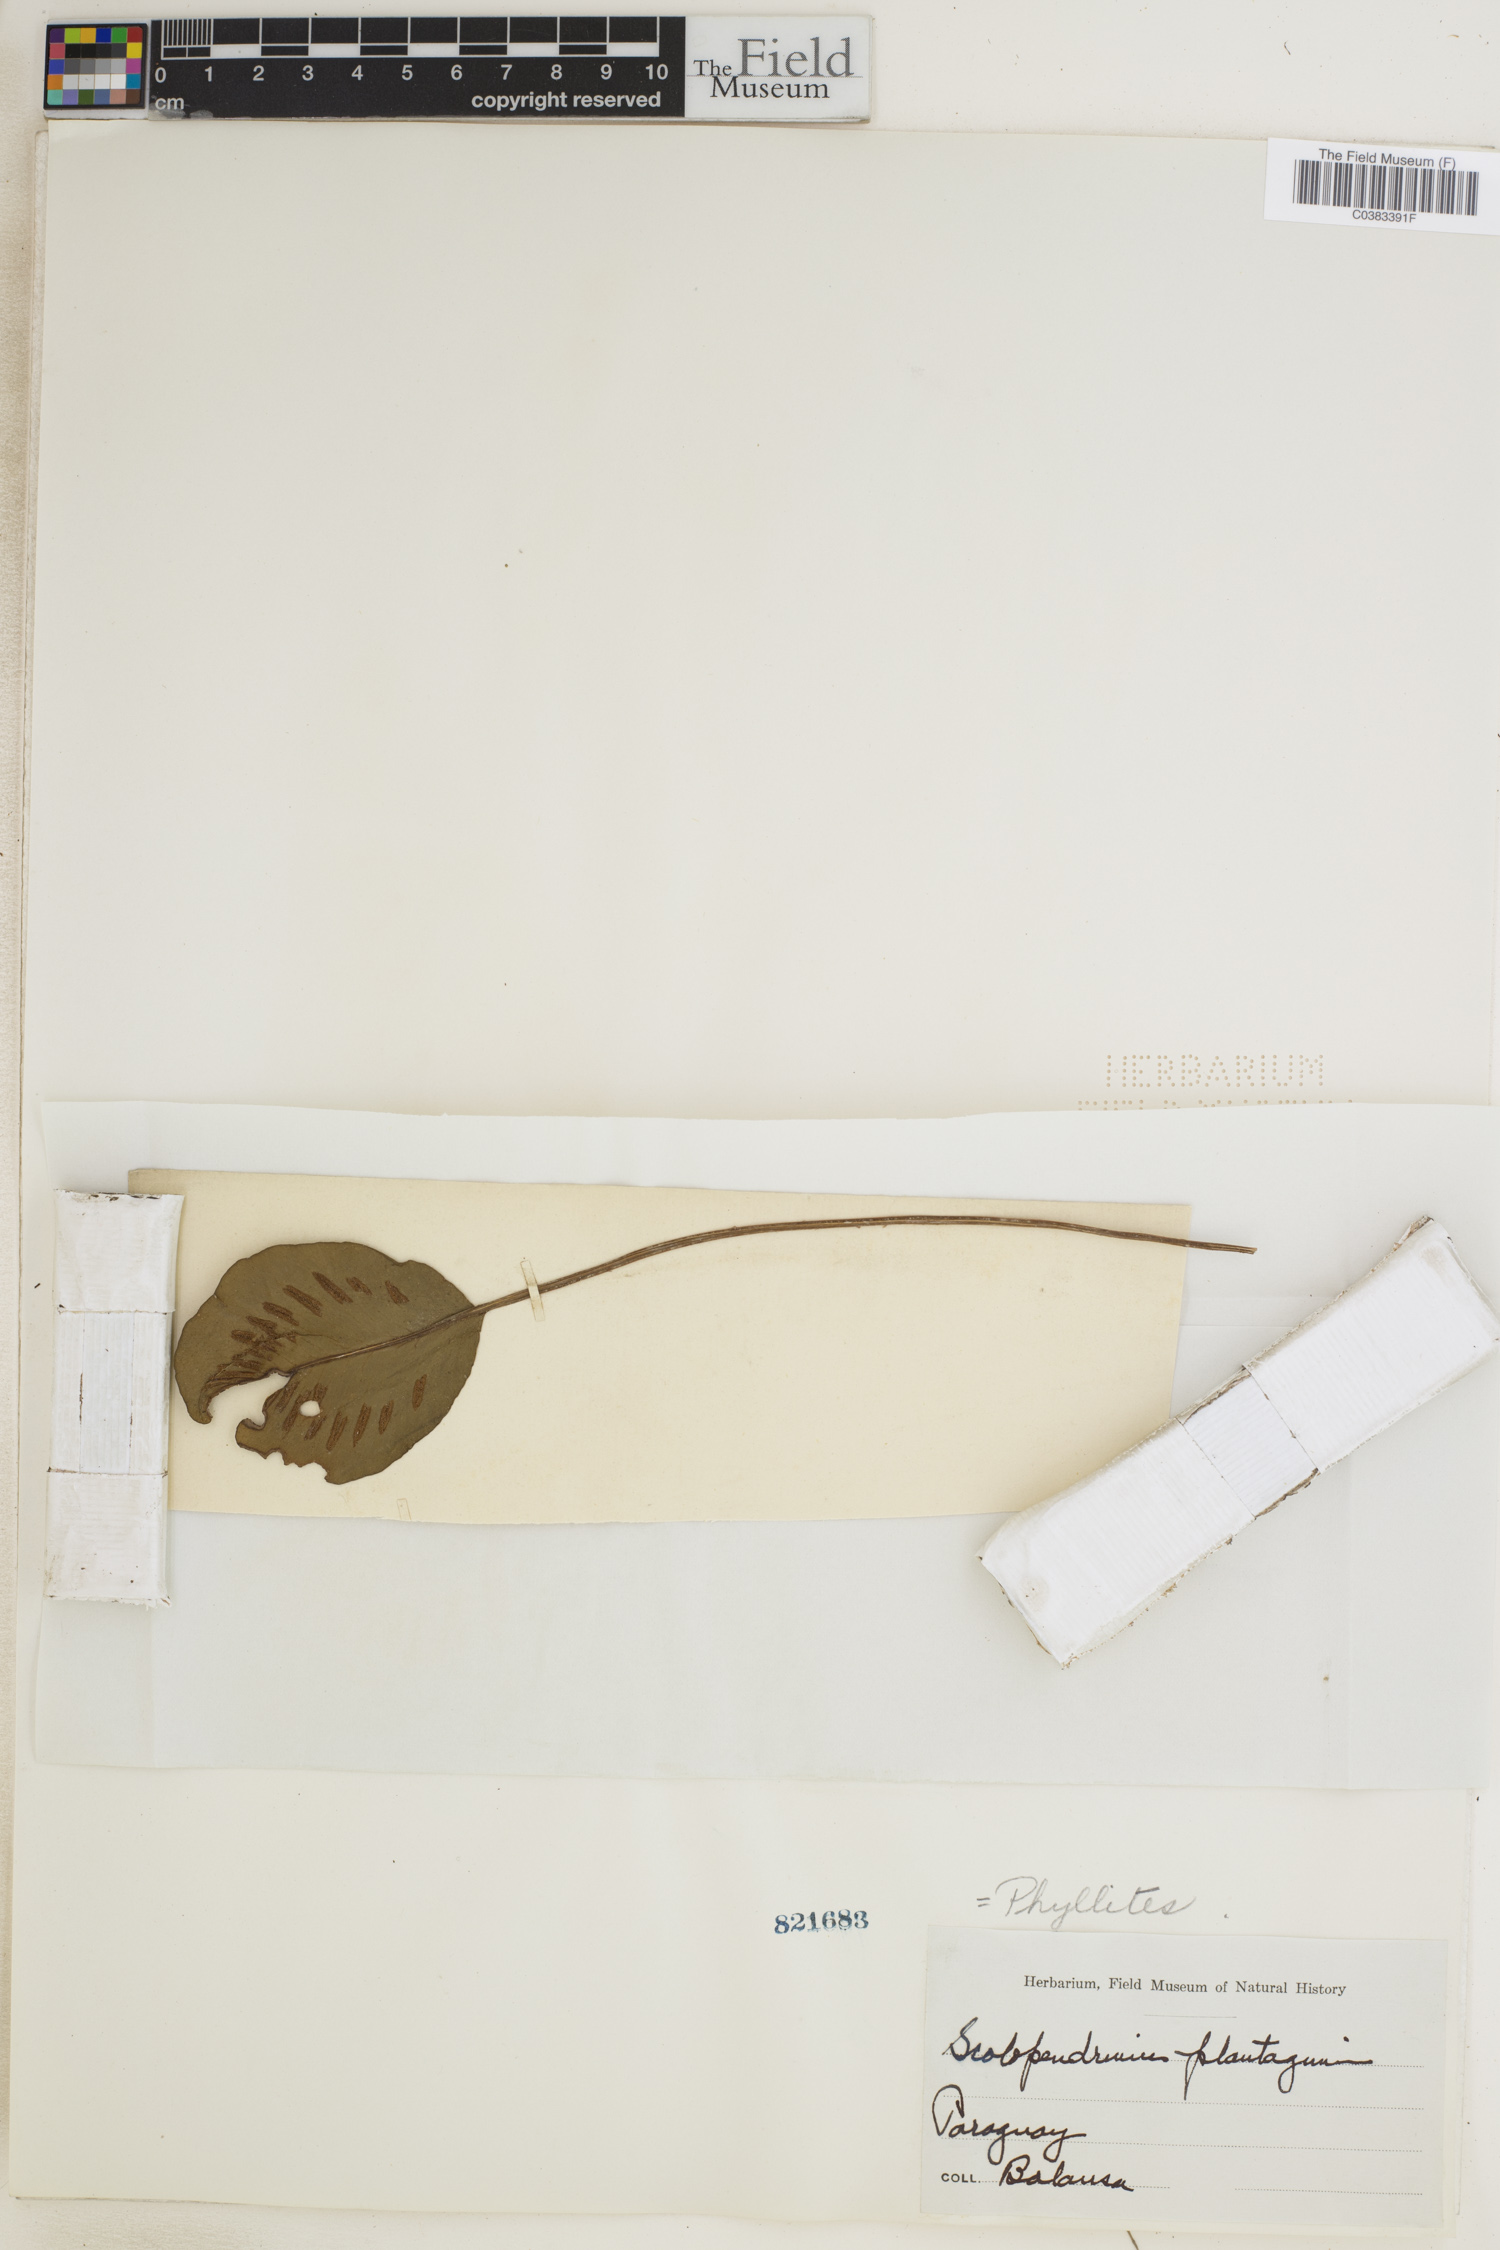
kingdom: Plantae
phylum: Tracheophyta
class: Polypodiopsida
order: Polypodiales
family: Aspleniaceae
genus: Asplenium
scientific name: Asplenium douglasii
